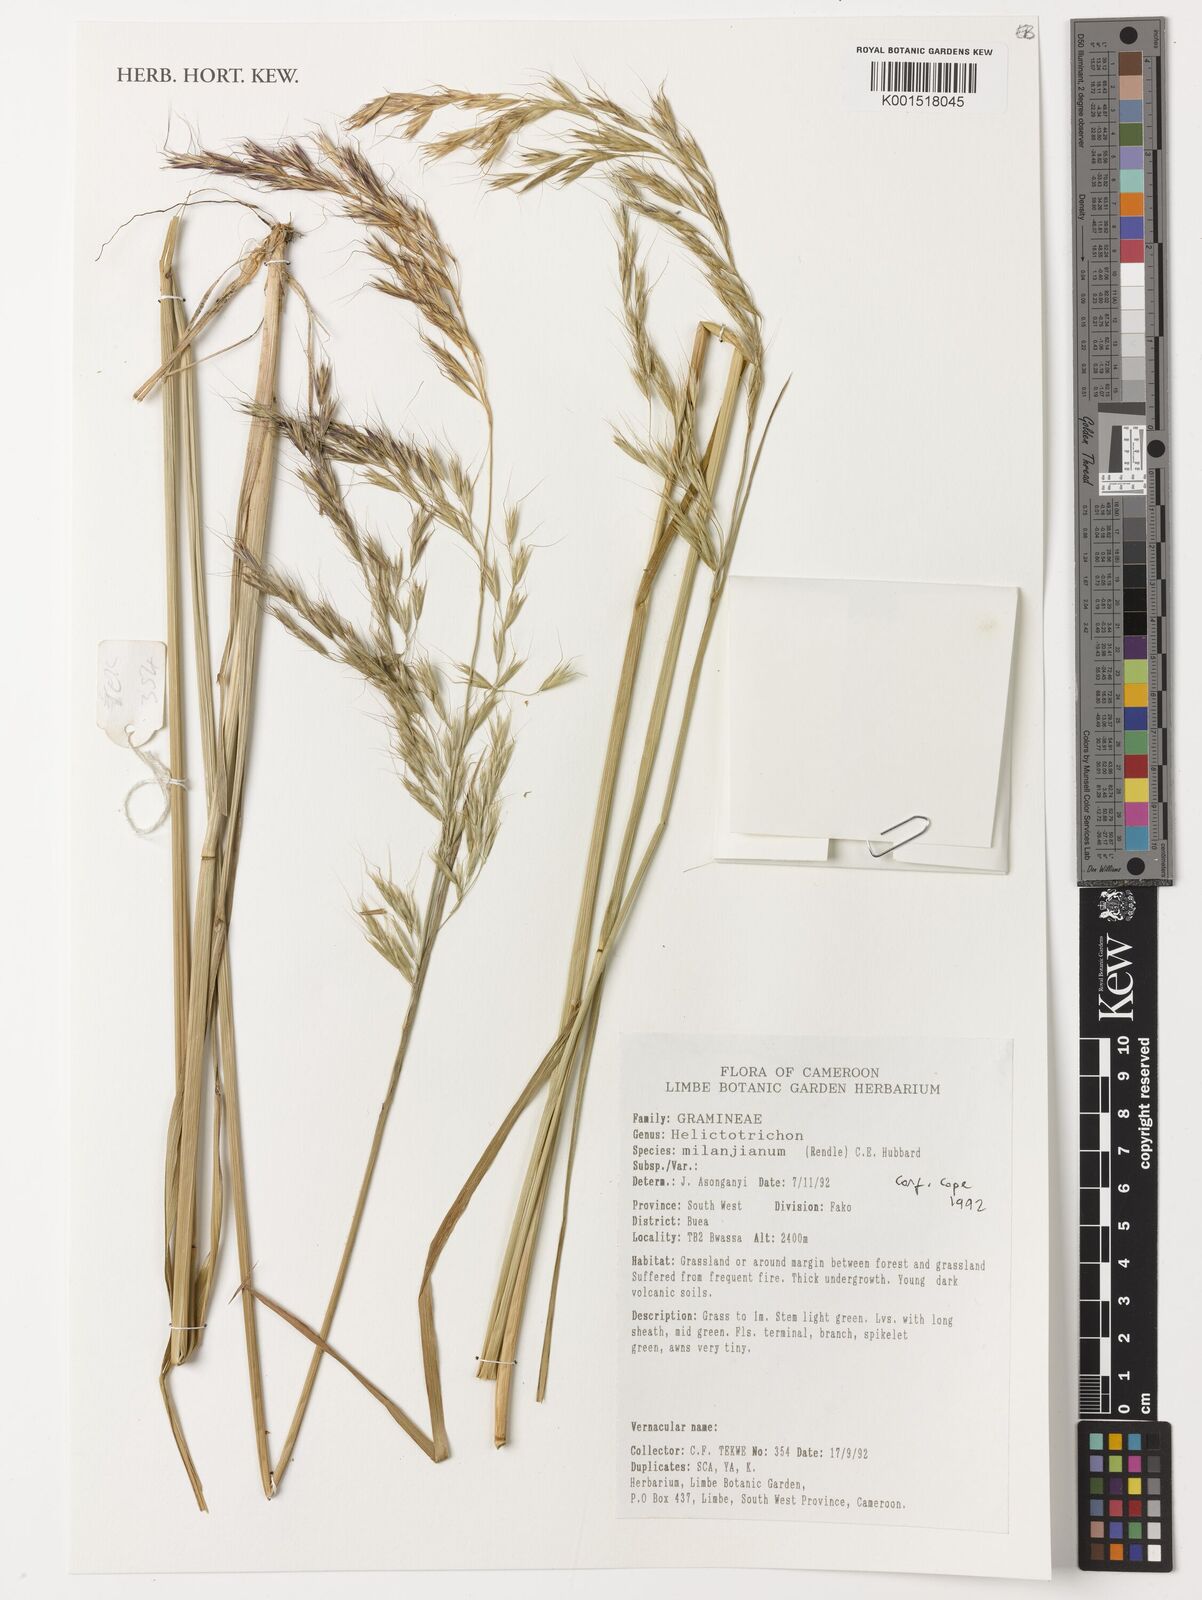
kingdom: Plantae
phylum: Tracheophyta
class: Liliopsida
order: Poales
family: Poaceae
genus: Trisetopsis
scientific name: Trisetopsis milanjiana
